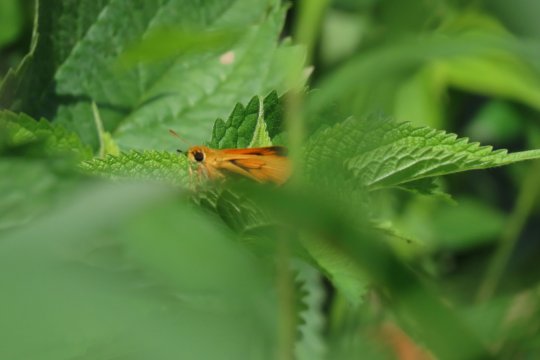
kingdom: Animalia
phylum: Arthropoda
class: Insecta
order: Lepidoptera
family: Hesperiidae
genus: Atrytone
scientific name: Atrytone delaware
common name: Delaware Skipper
